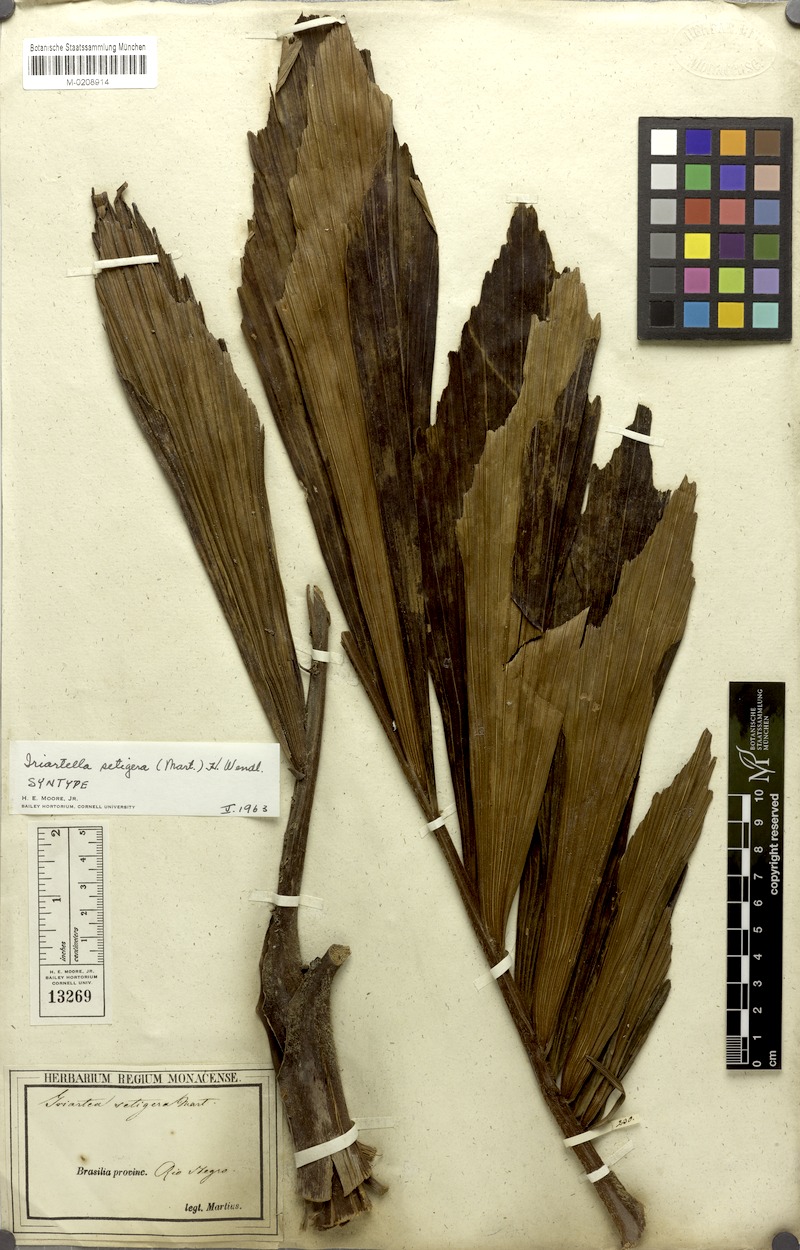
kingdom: Plantae
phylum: Tracheophyta
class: Liliopsida
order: Arecales
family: Arecaceae
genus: Iriartella
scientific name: Iriartella setigera
